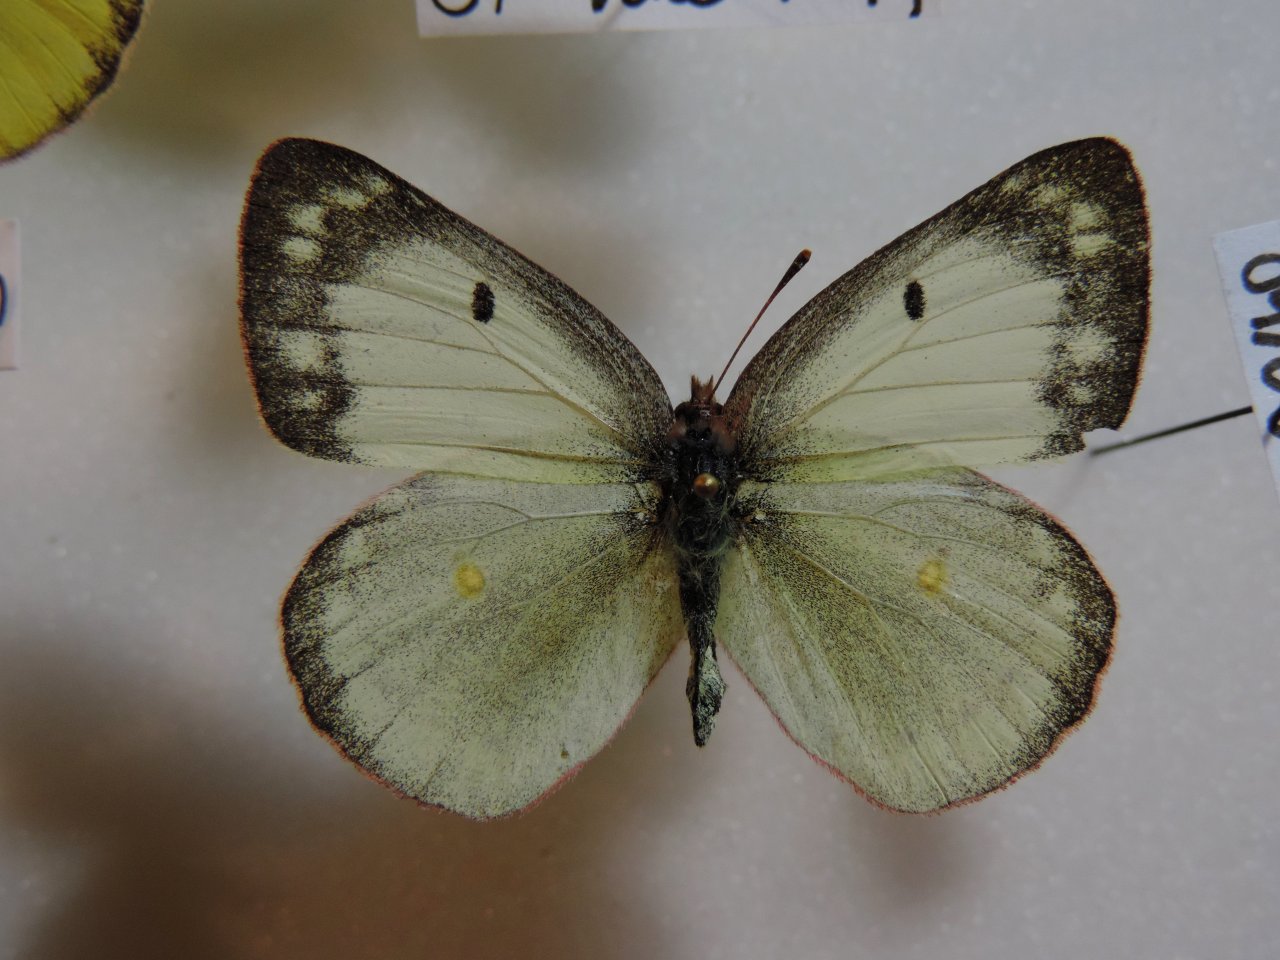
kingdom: Animalia
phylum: Arthropoda
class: Insecta
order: Lepidoptera
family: Pieridae
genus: Colias
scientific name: Colias philodice
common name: Clouded Sulphur
